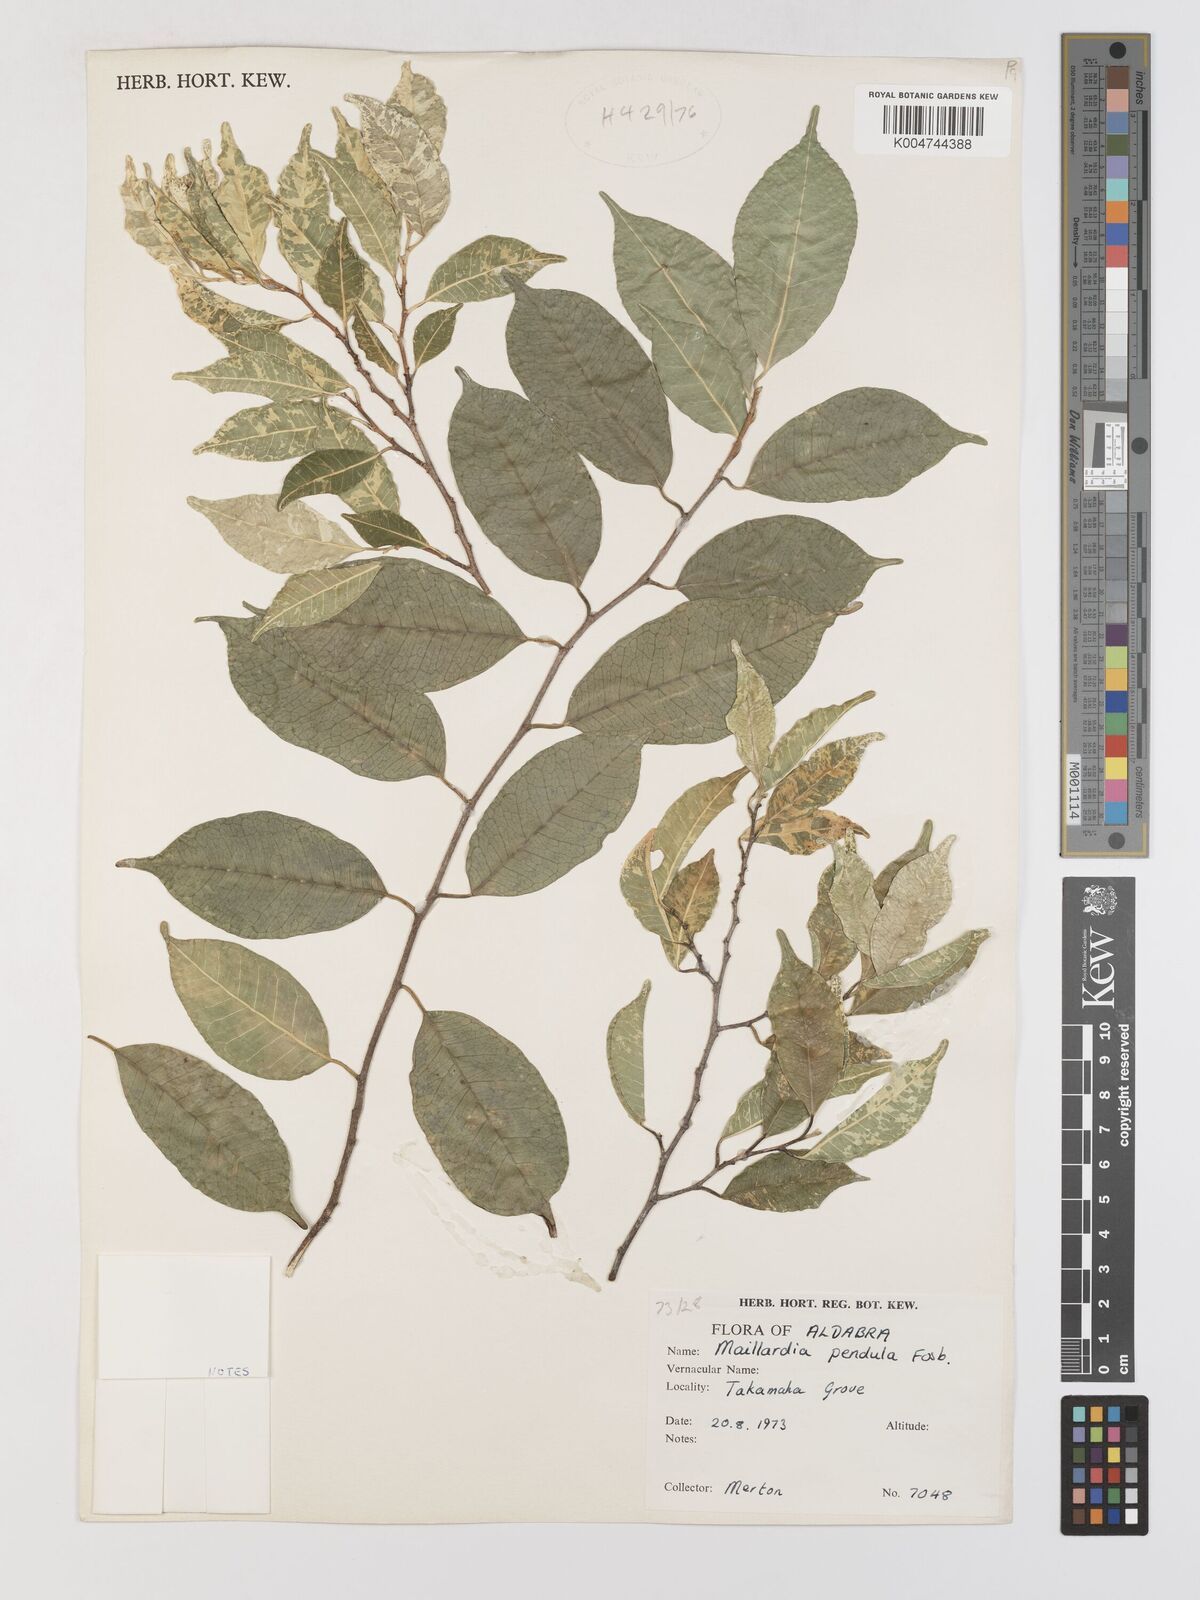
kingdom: Plantae
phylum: Tracheophyta
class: Magnoliopsida
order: Rosales
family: Moraceae
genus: Maillardia
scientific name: Maillardia montana
